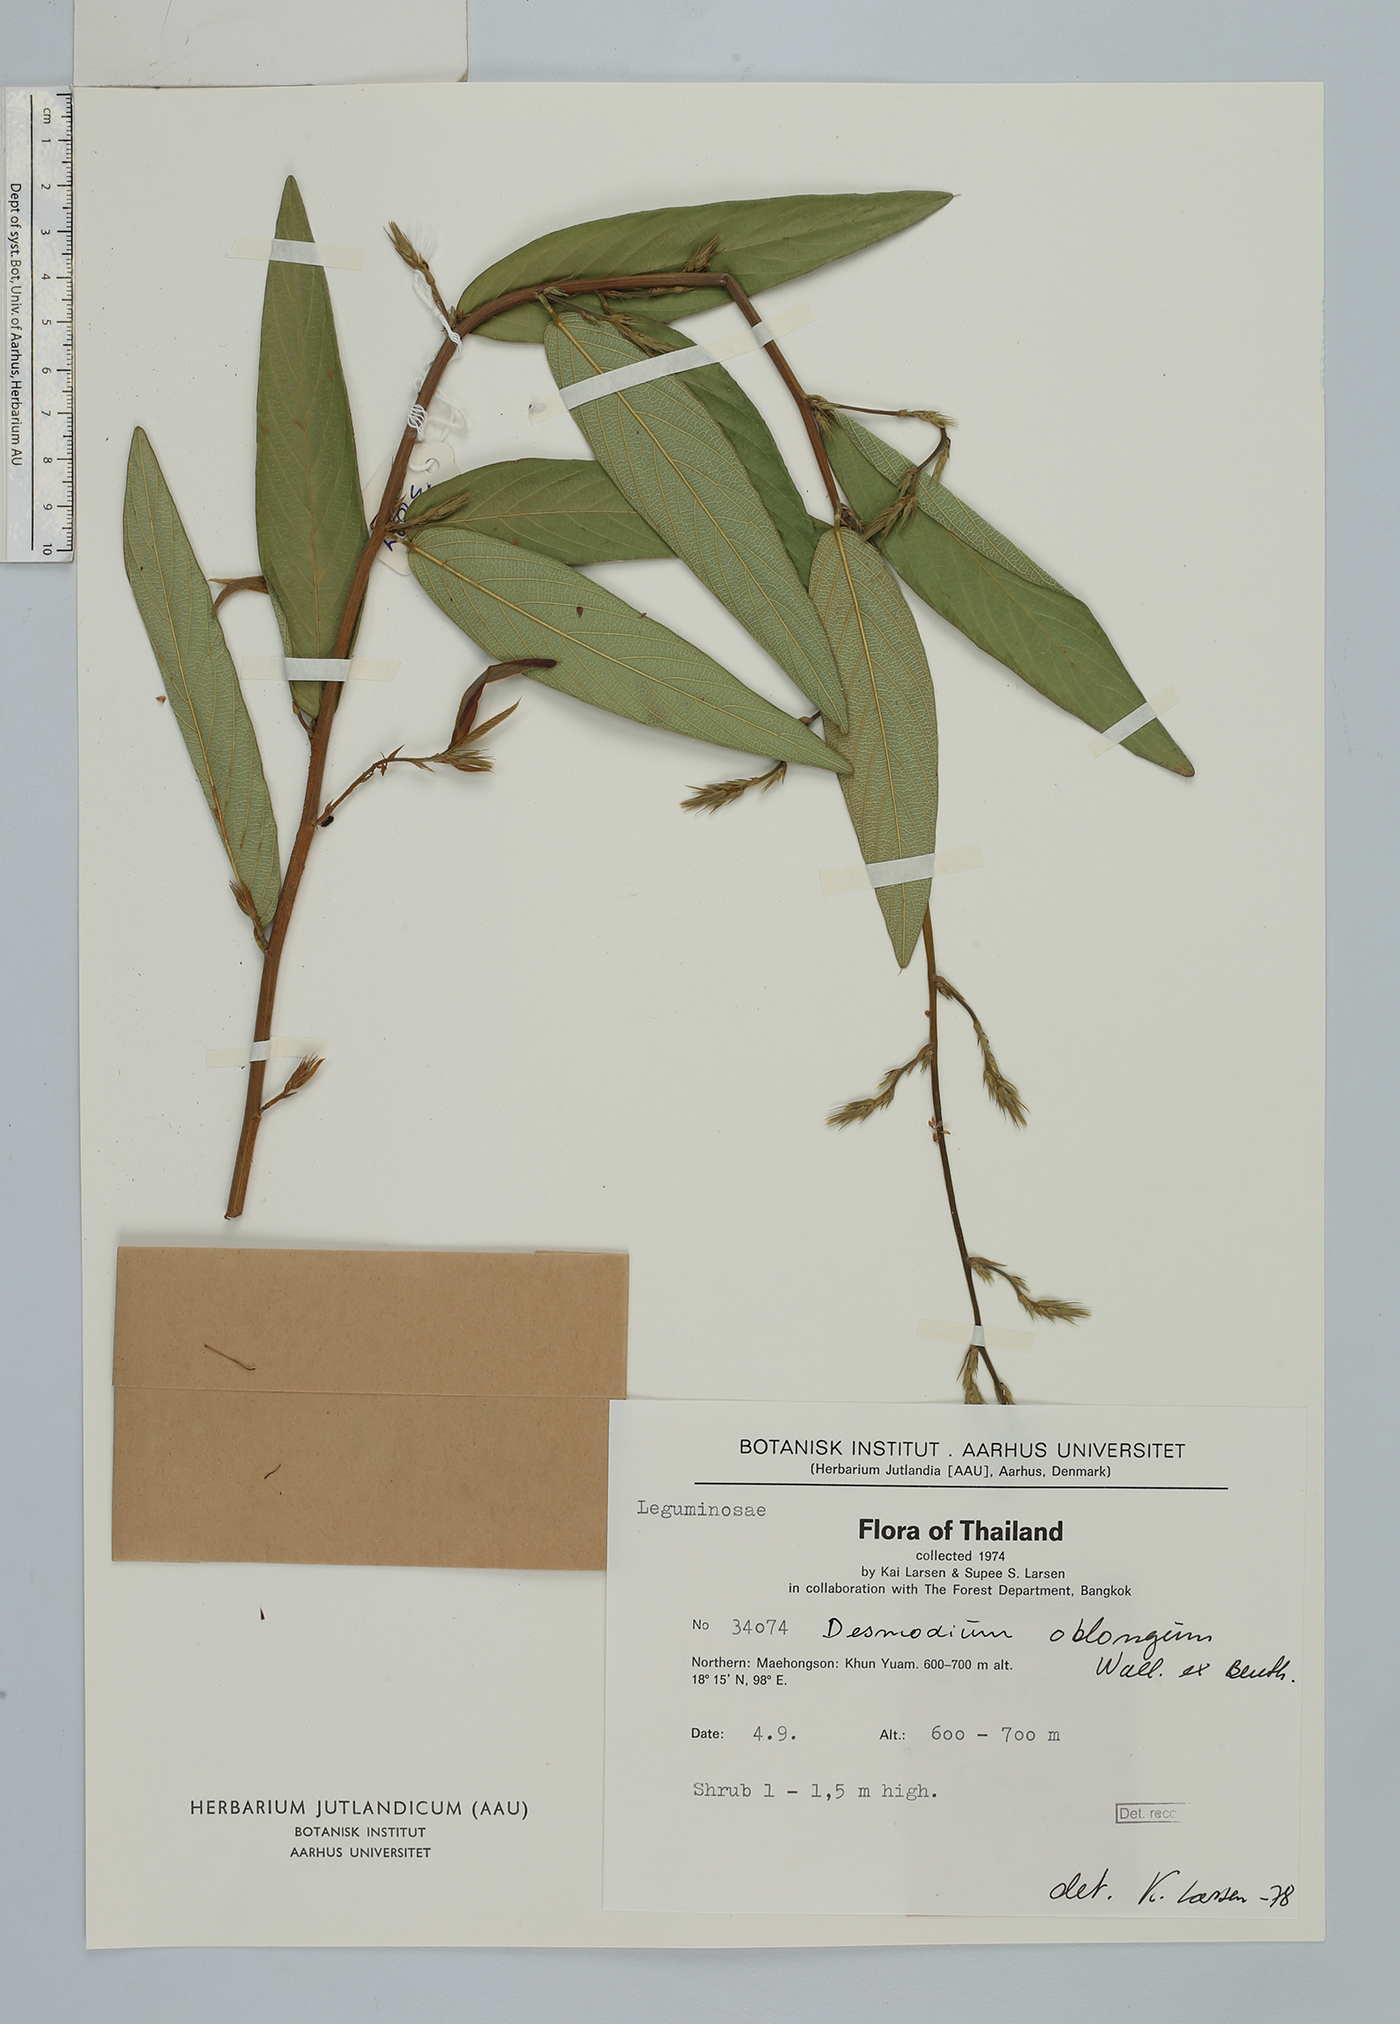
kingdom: Plantae
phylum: Tracheophyta
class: Magnoliopsida
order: Fabales
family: Fabaceae
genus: Uraria
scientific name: Uraria oblonga
